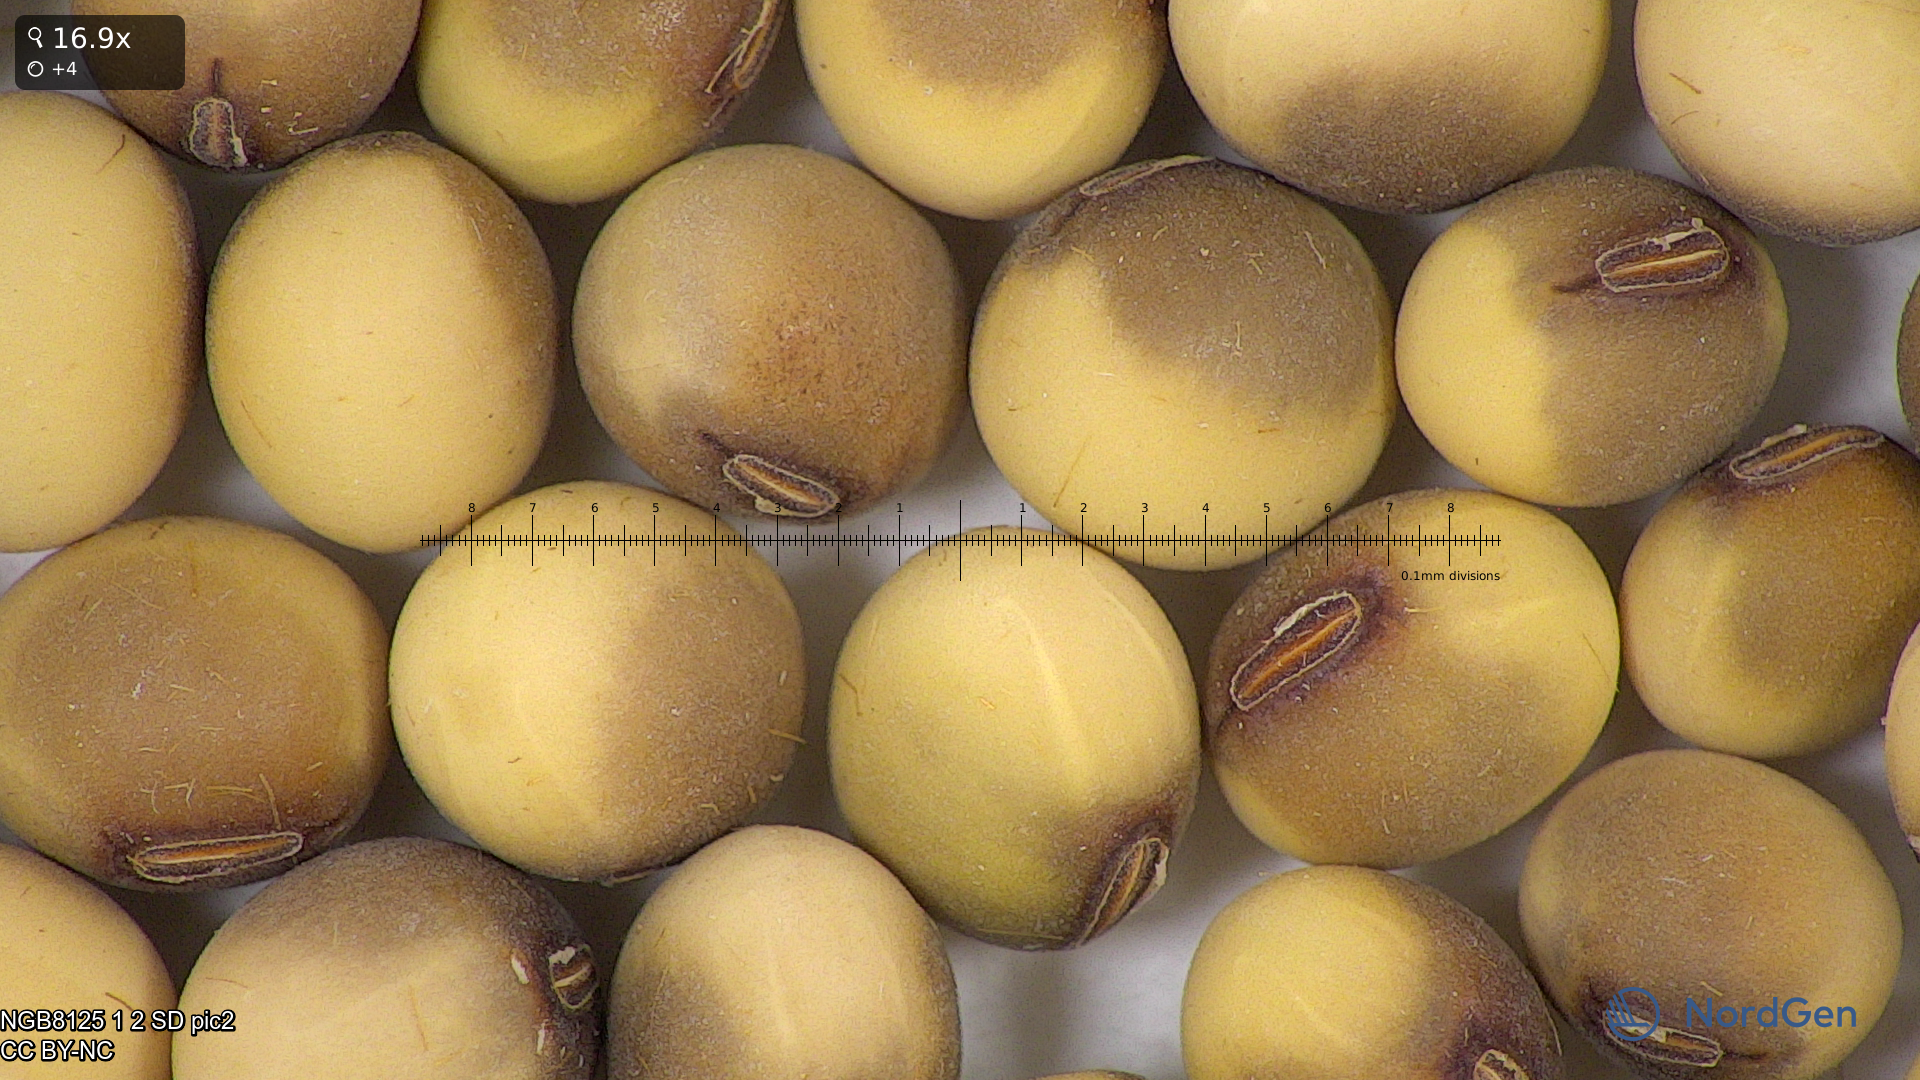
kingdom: Plantae
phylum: Tracheophyta
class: Magnoliopsida
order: Fabales
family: Fabaceae
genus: Glycine
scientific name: Glycine max
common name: Soya-bean
